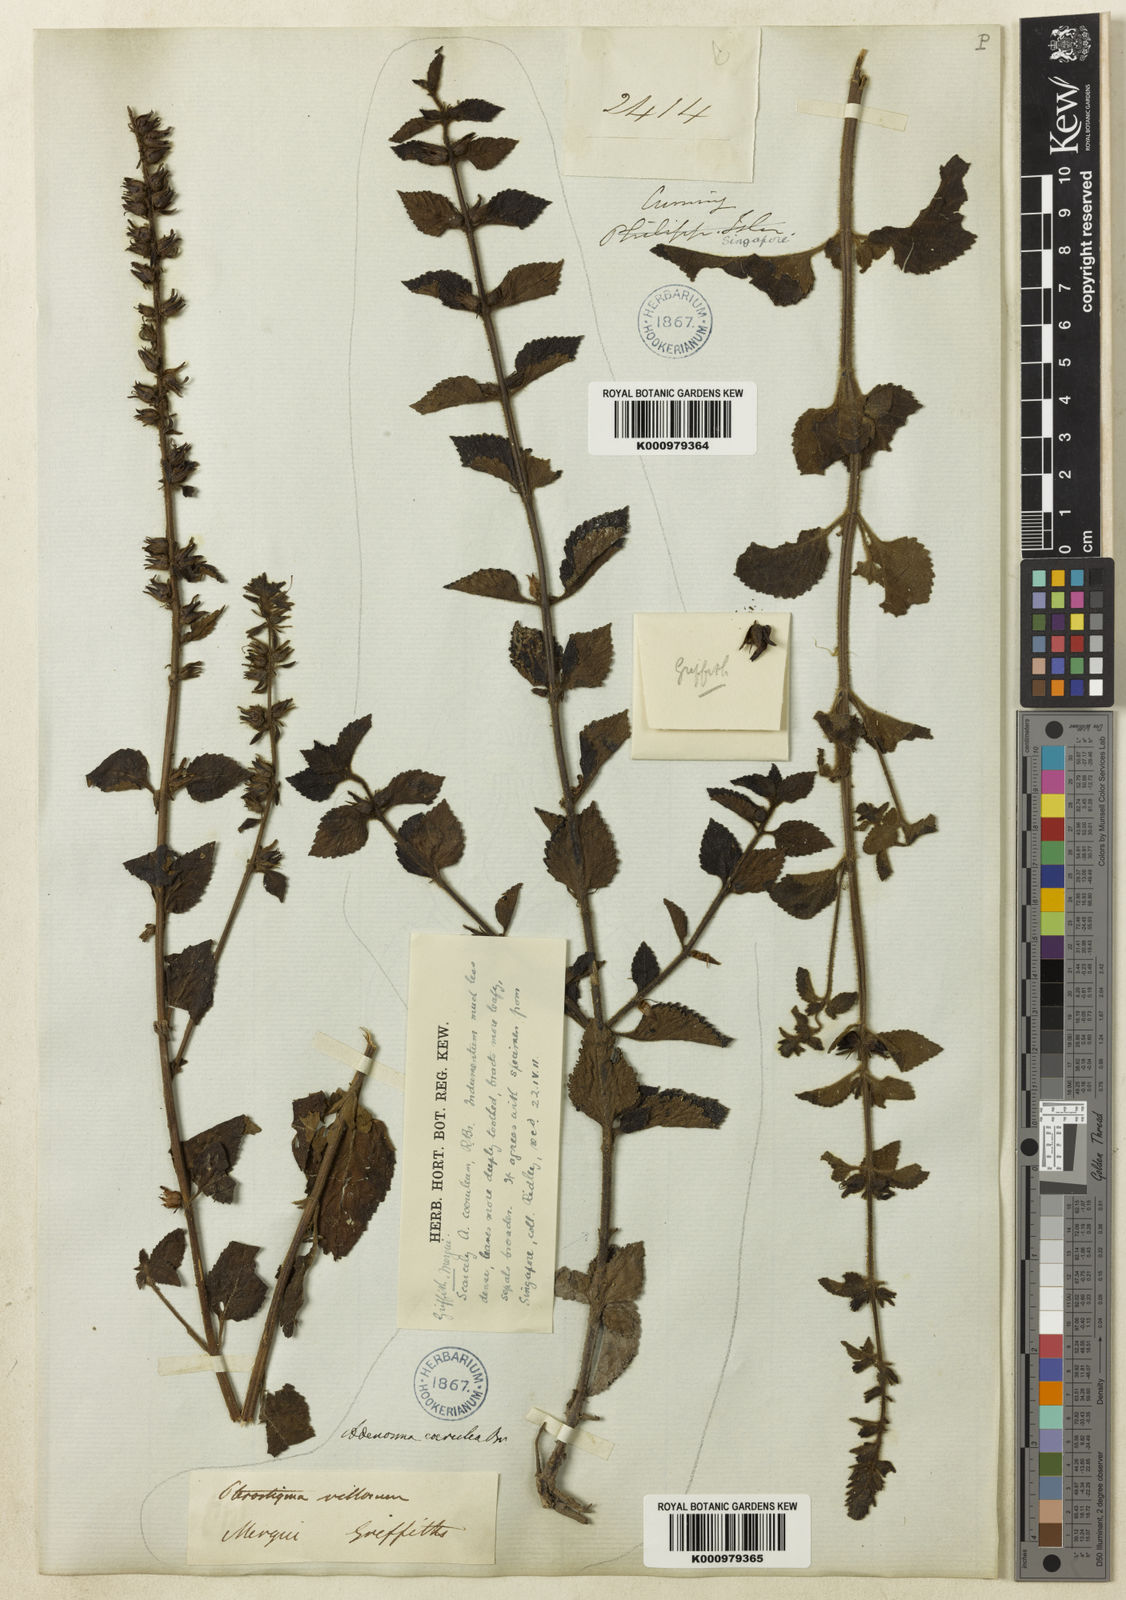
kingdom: Plantae
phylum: Tracheophyta
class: Magnoliopsida
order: Lamiales
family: Plantaginaceae
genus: Adenosma
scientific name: Adenosma inopinata
